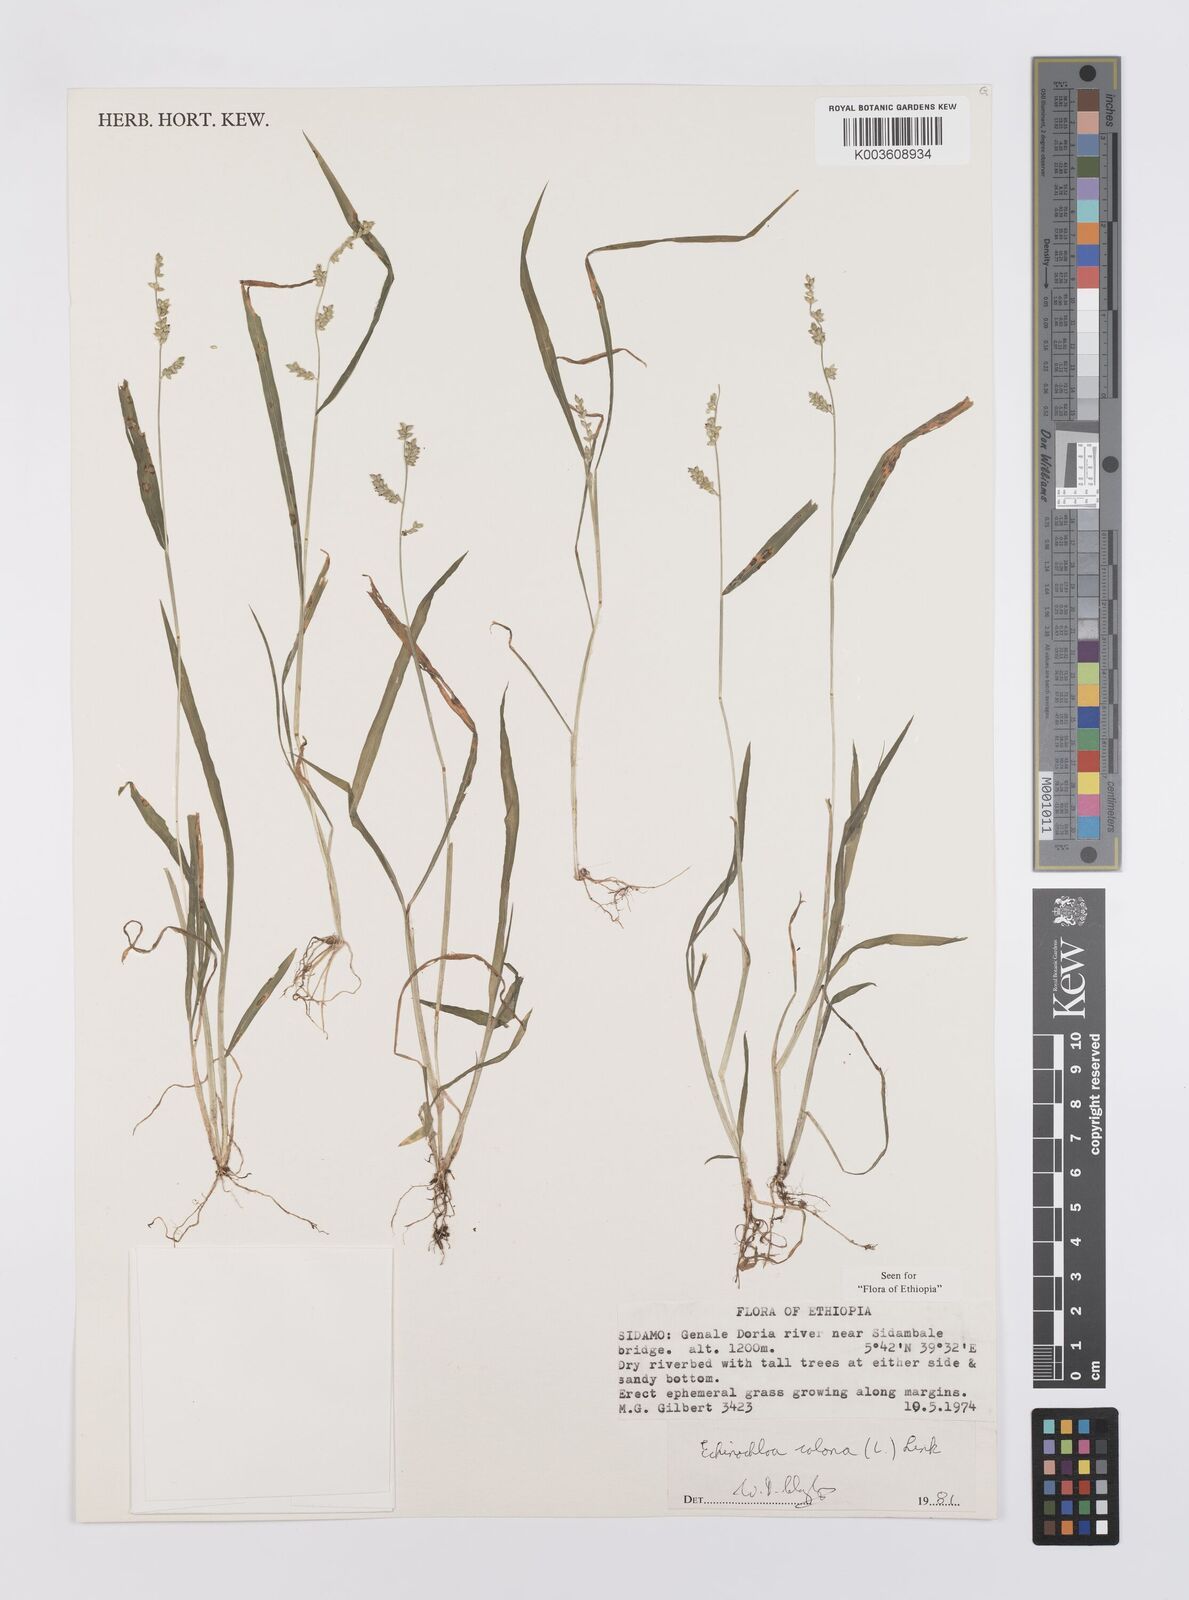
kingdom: Plantae
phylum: Tracheophyta
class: Liliopsida
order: Poales
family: Poaceae
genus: Echinochloa
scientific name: Echinochloa colonum
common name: Jungle rice
